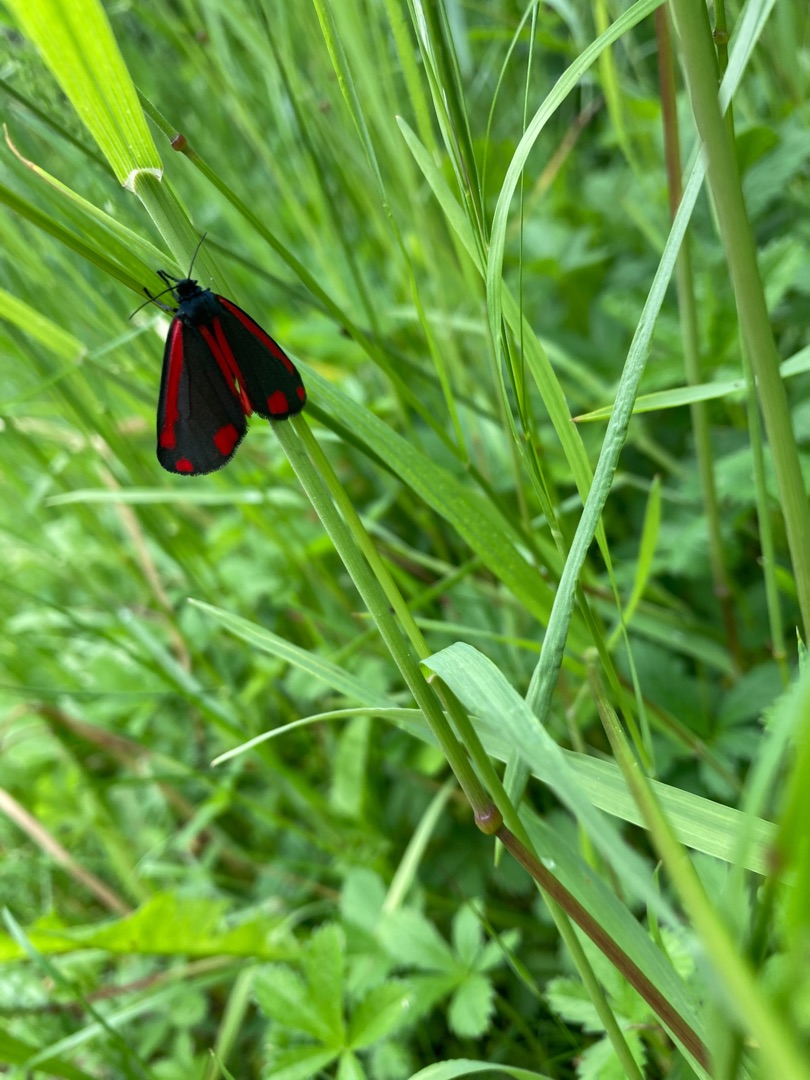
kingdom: Animalia
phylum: Arthropoda
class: Insecta
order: Lepidoptera
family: Erebidae
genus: Tyria
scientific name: Tyria jacobaeae
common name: Blodplet
